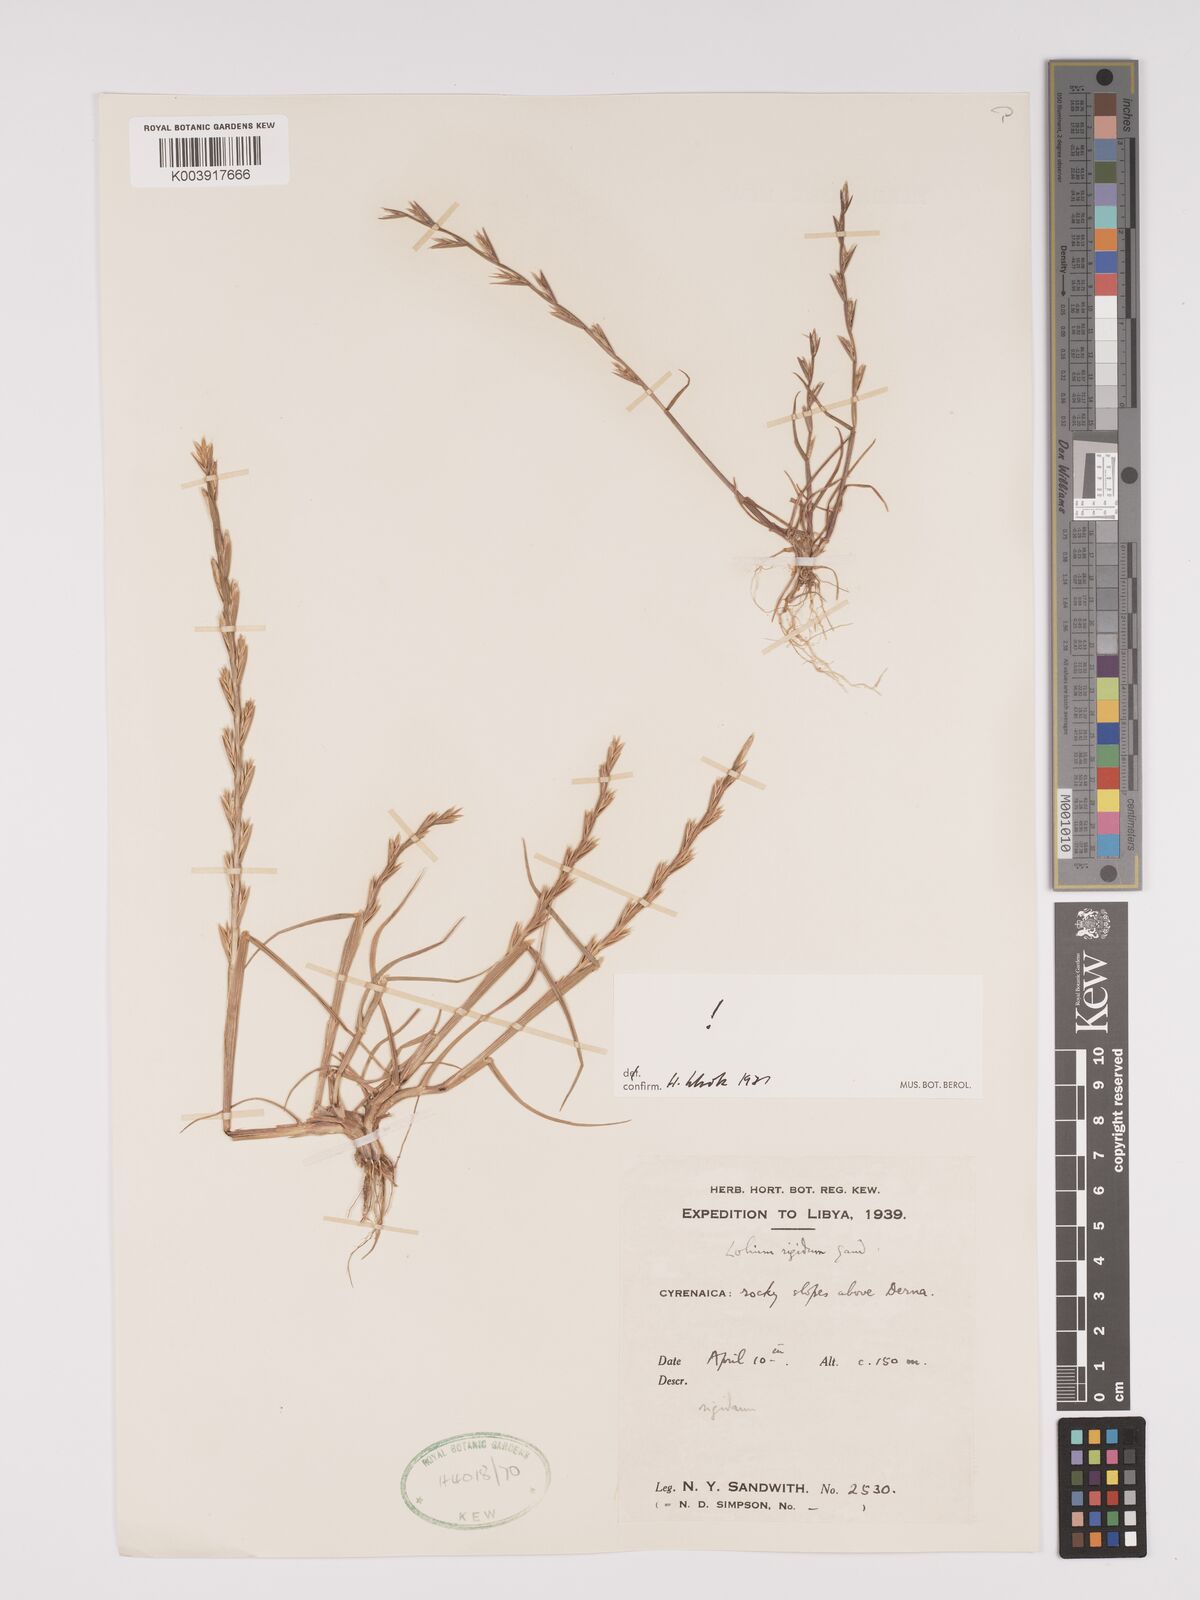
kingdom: Plantae
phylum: Tracheophyta
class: Liliopsida
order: Poales
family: Poaceae
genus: Lolium
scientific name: Lolium rigidum
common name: Wimmera ryegrass
